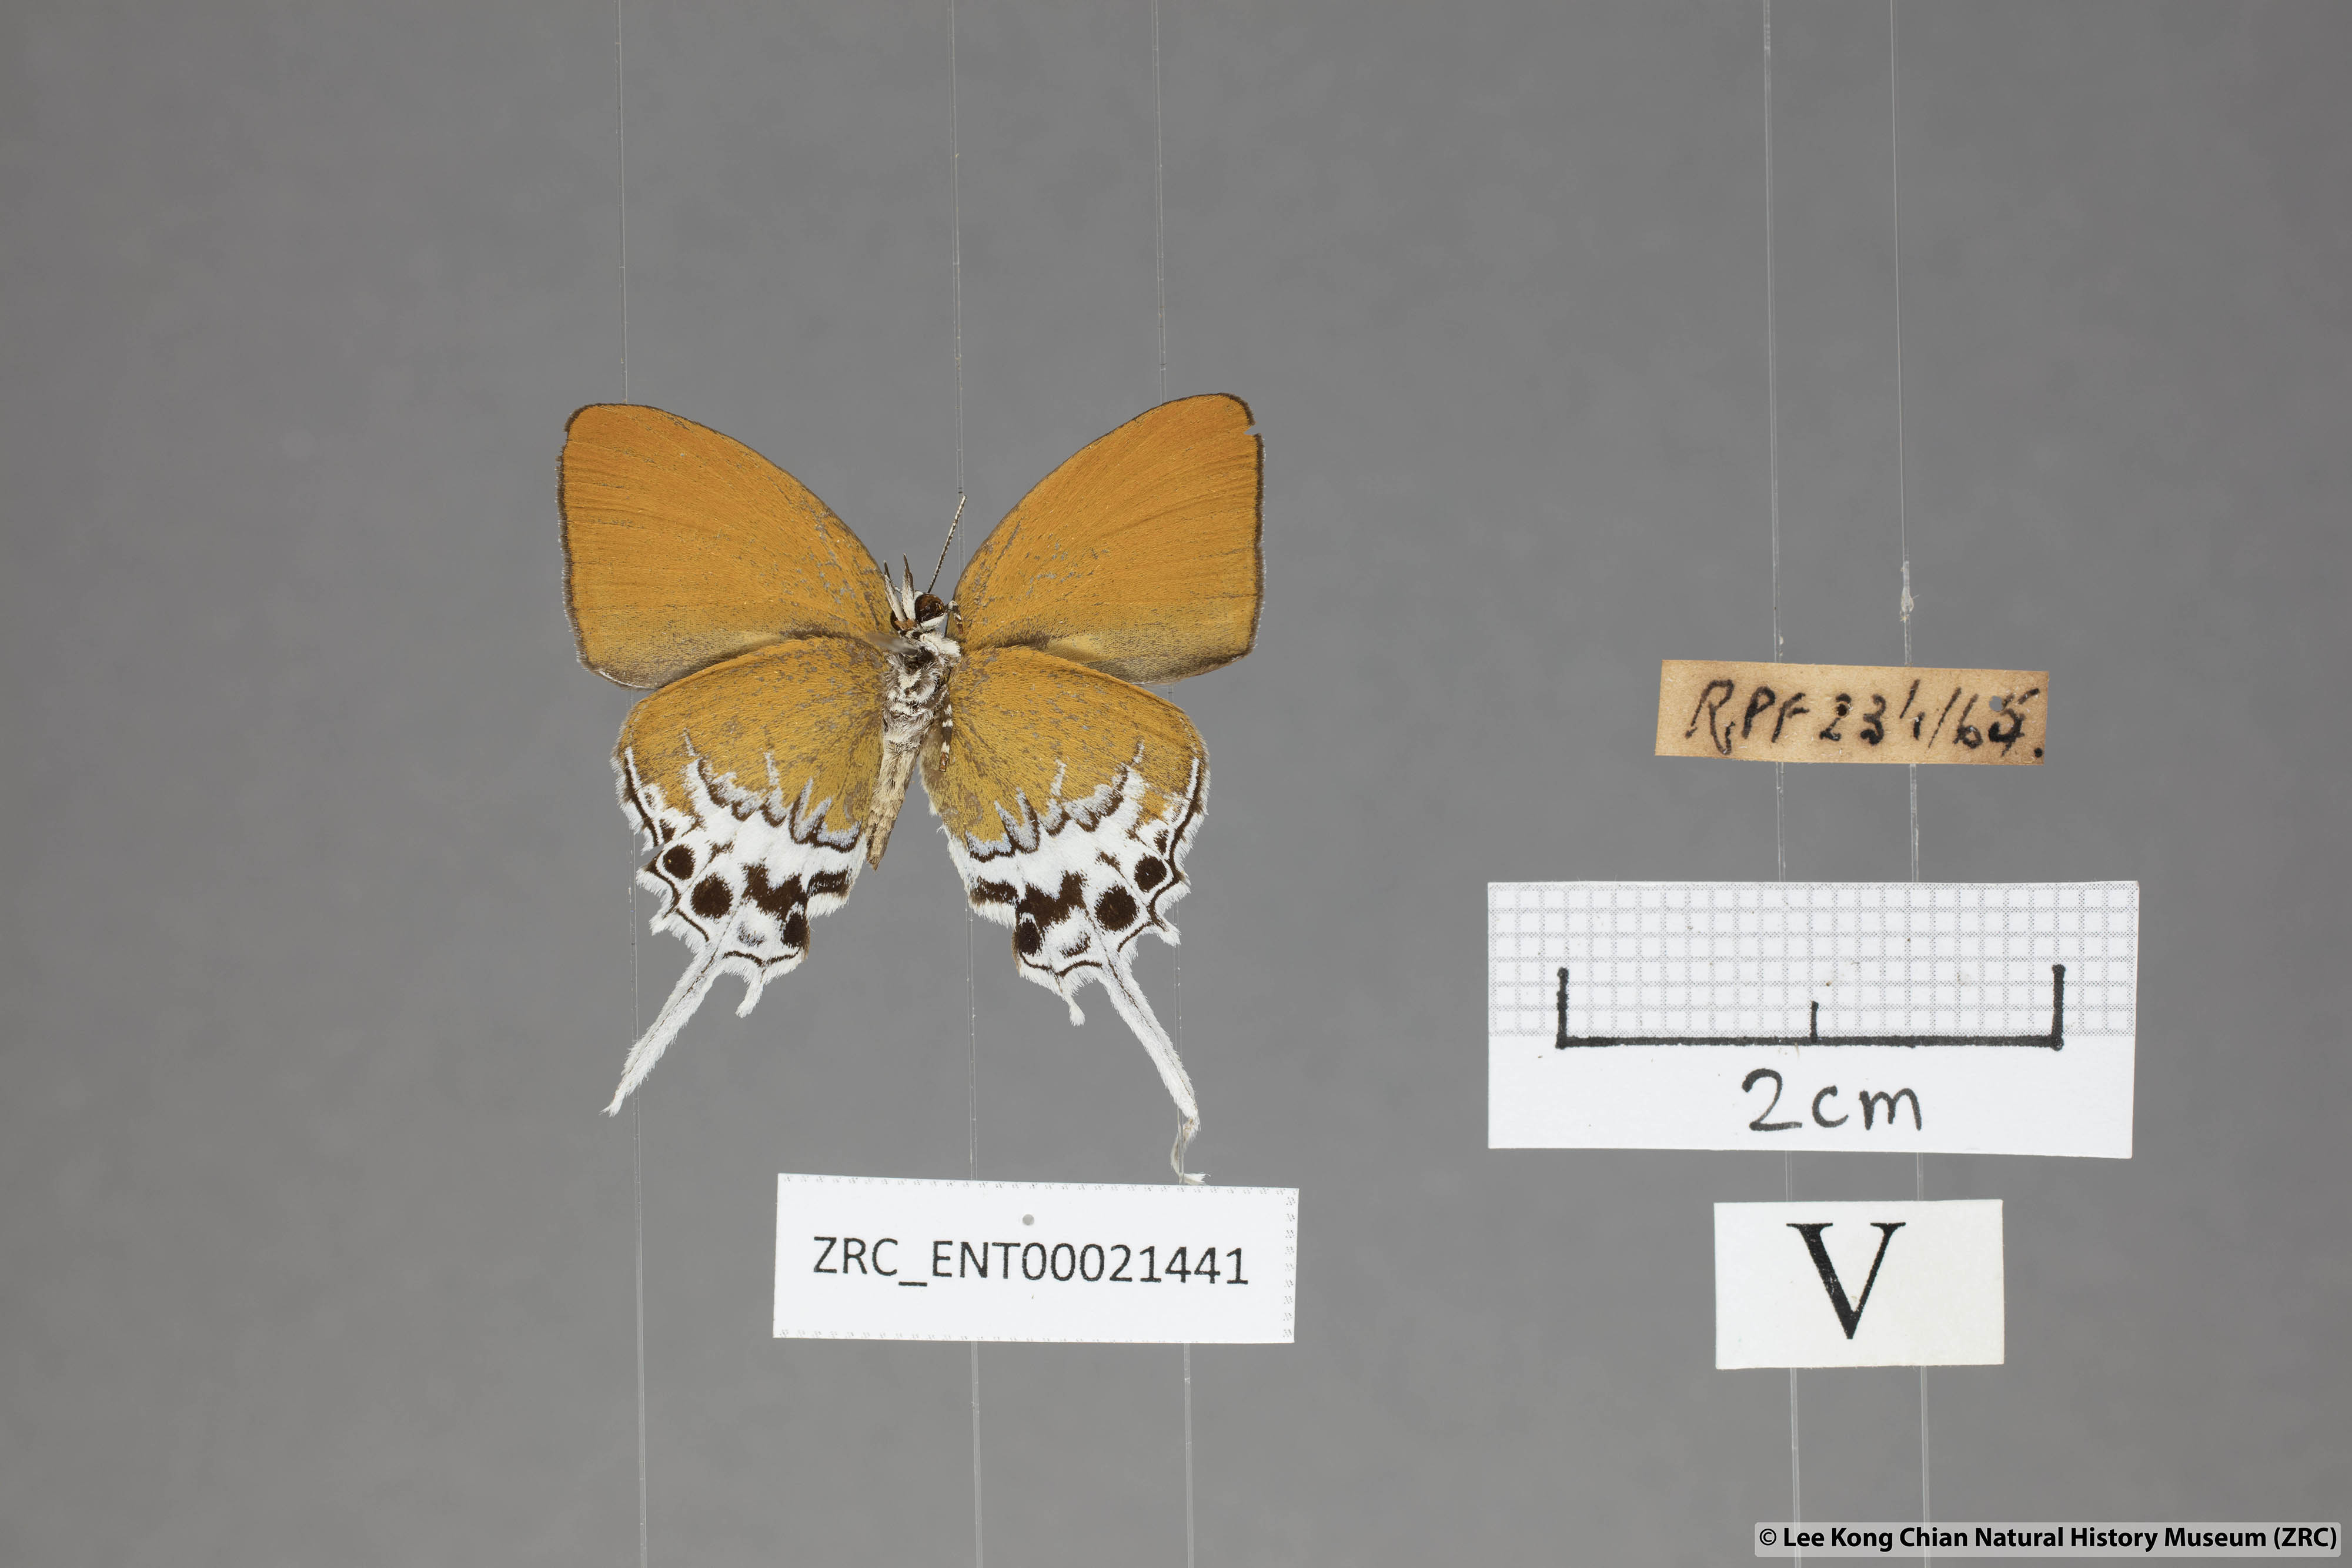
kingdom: Animalia
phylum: Arthropoda
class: Insecta
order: Lepidoptera
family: Lycaenidae
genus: Eooxylides
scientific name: Eooxylides tharis
